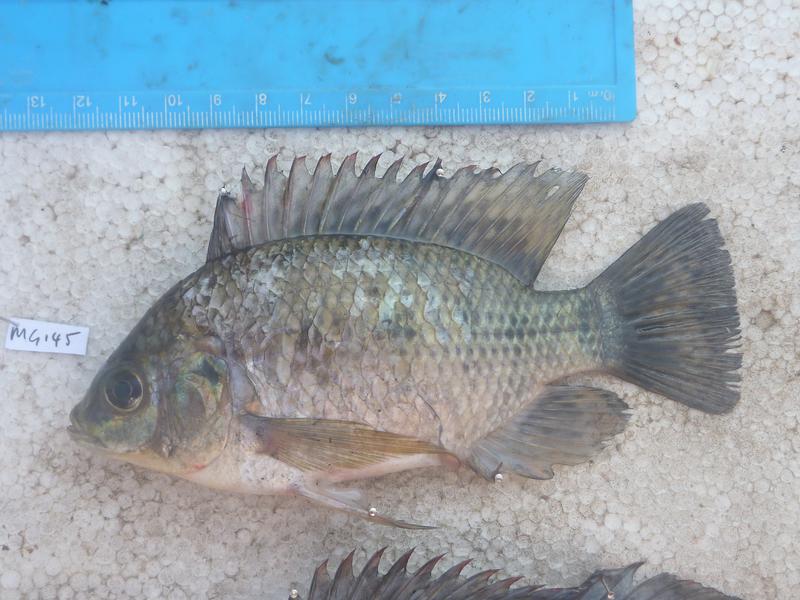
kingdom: Animalia
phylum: Chordata
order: Perciformes
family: Cichlidae
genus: Oreochromis
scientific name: Oreochromis upembae
